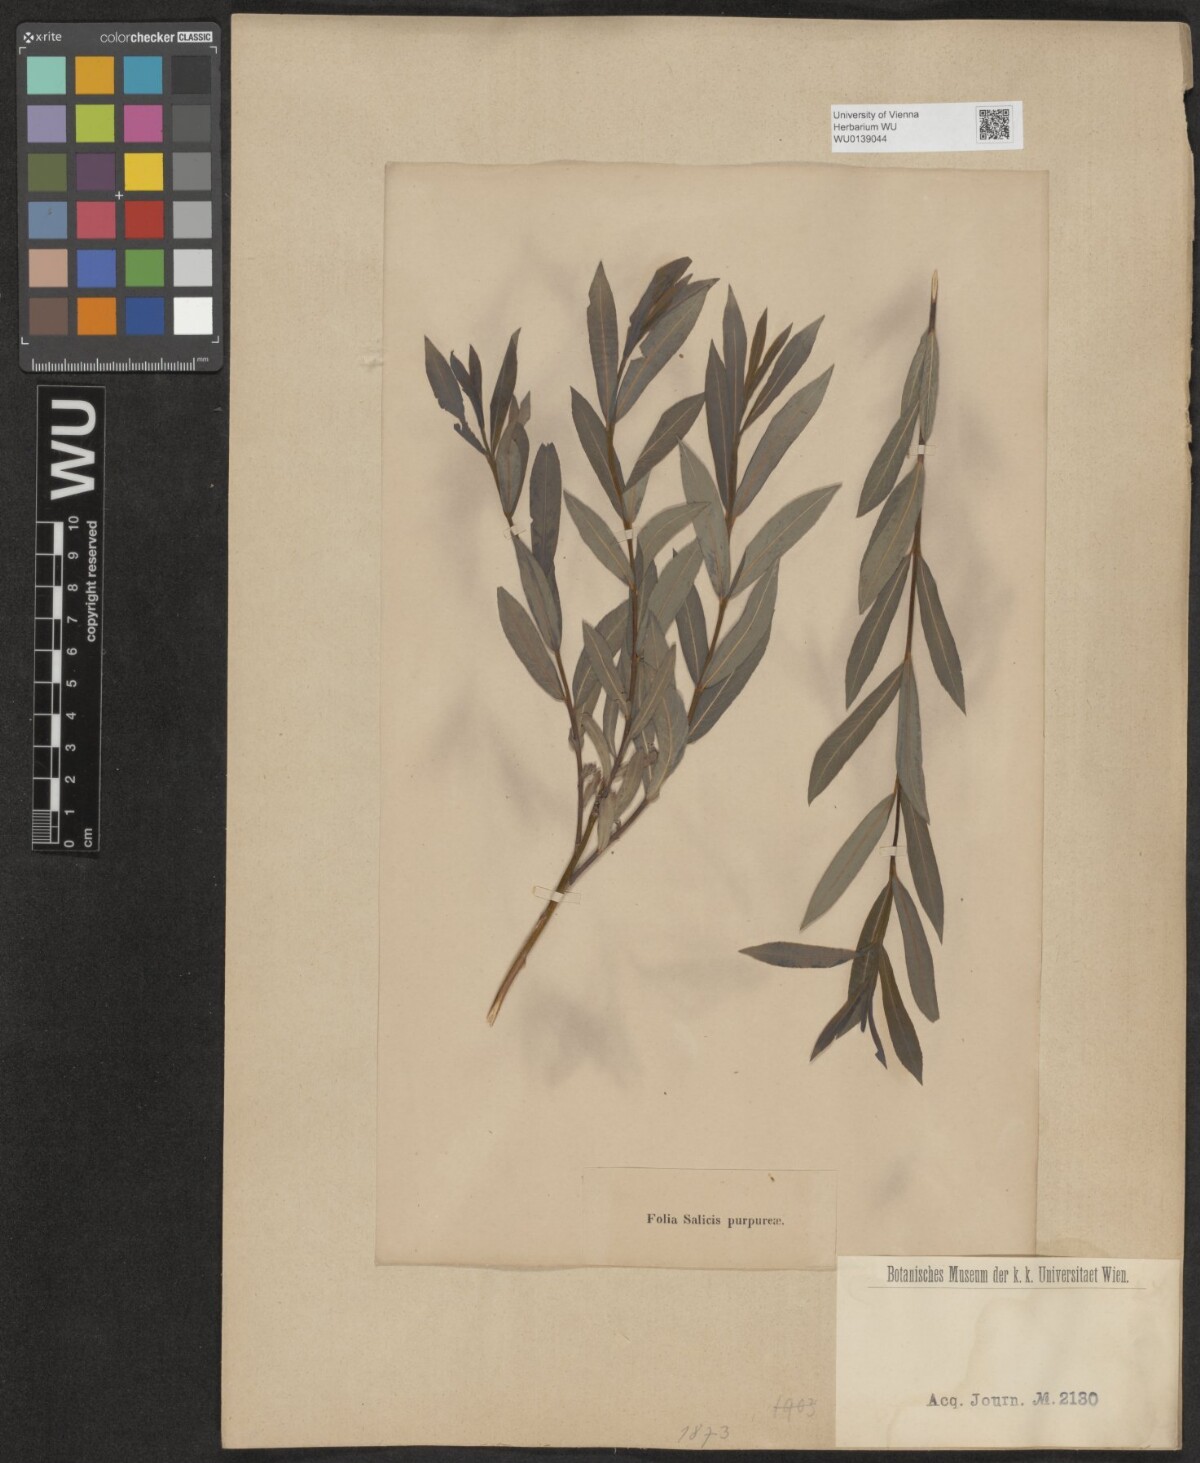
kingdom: Plantae
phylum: Tracheophyta
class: Magnoliopsida
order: Malpighiales
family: Salicaceae
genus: Salix
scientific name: Salix purpurea
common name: Purple willow
